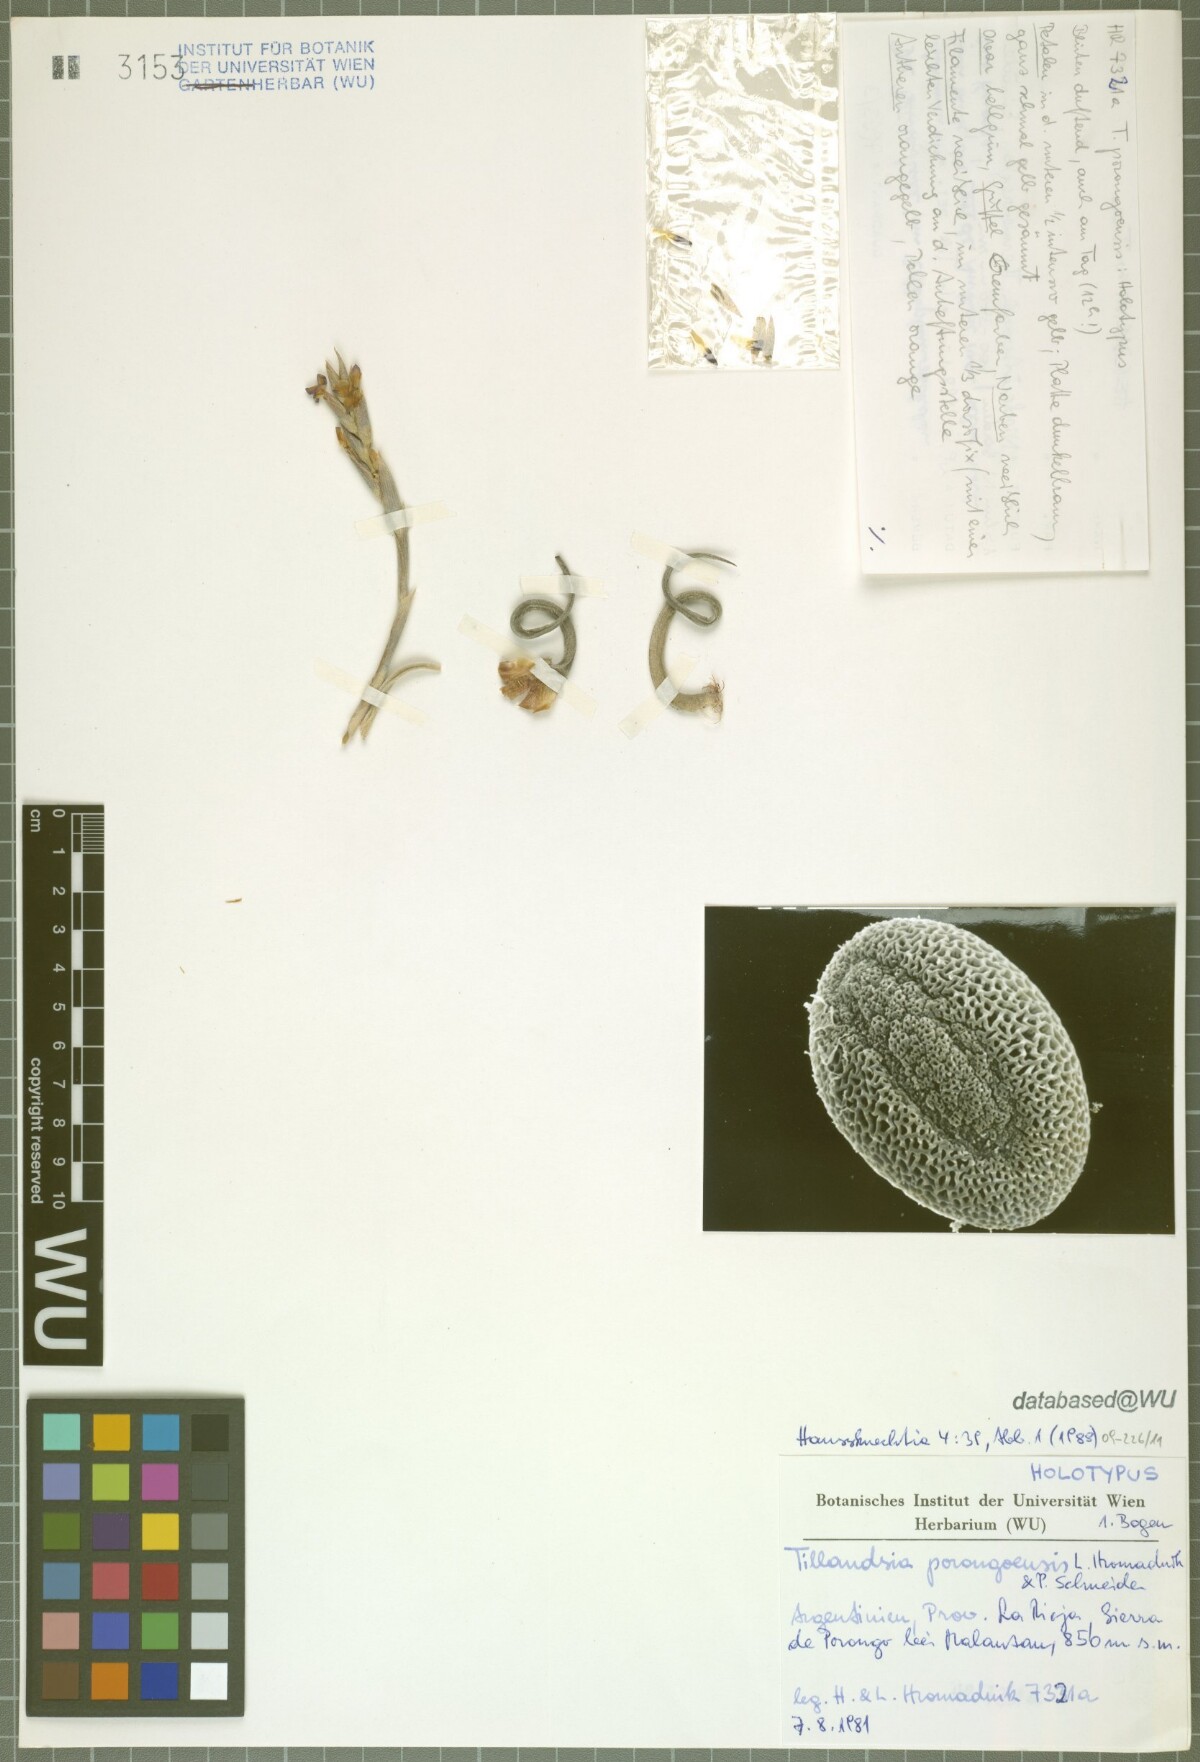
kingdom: Plantae
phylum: Tracheophyta
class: Liliopsida
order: Poales
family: Bromeliaceae
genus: Tillandsia
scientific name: Tillandsia porongoensis
